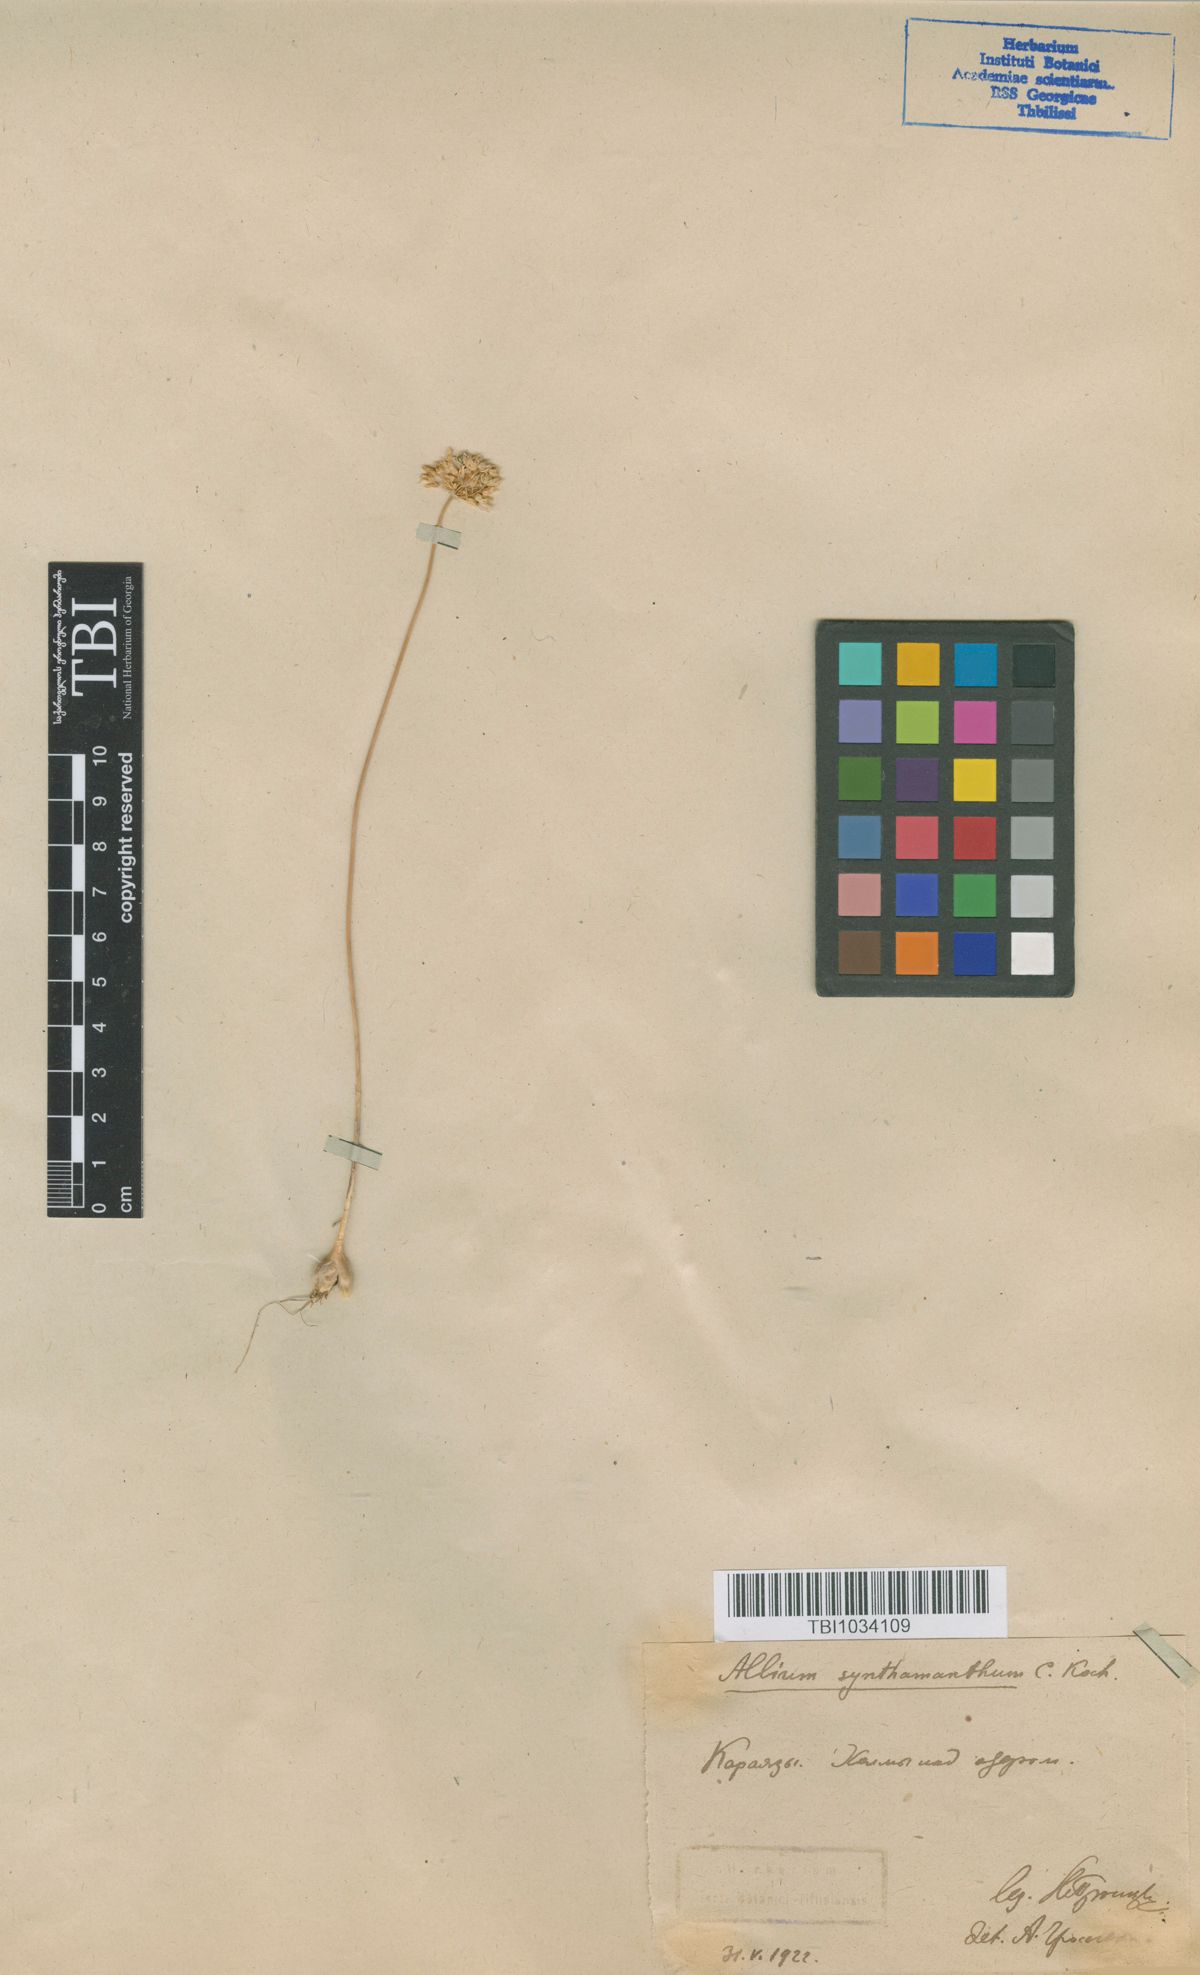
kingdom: Plantae
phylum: Tracheophyta
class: Liliopsida
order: Asparagales
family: Amaryllidaceae
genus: Allium
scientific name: Allium rubellum
